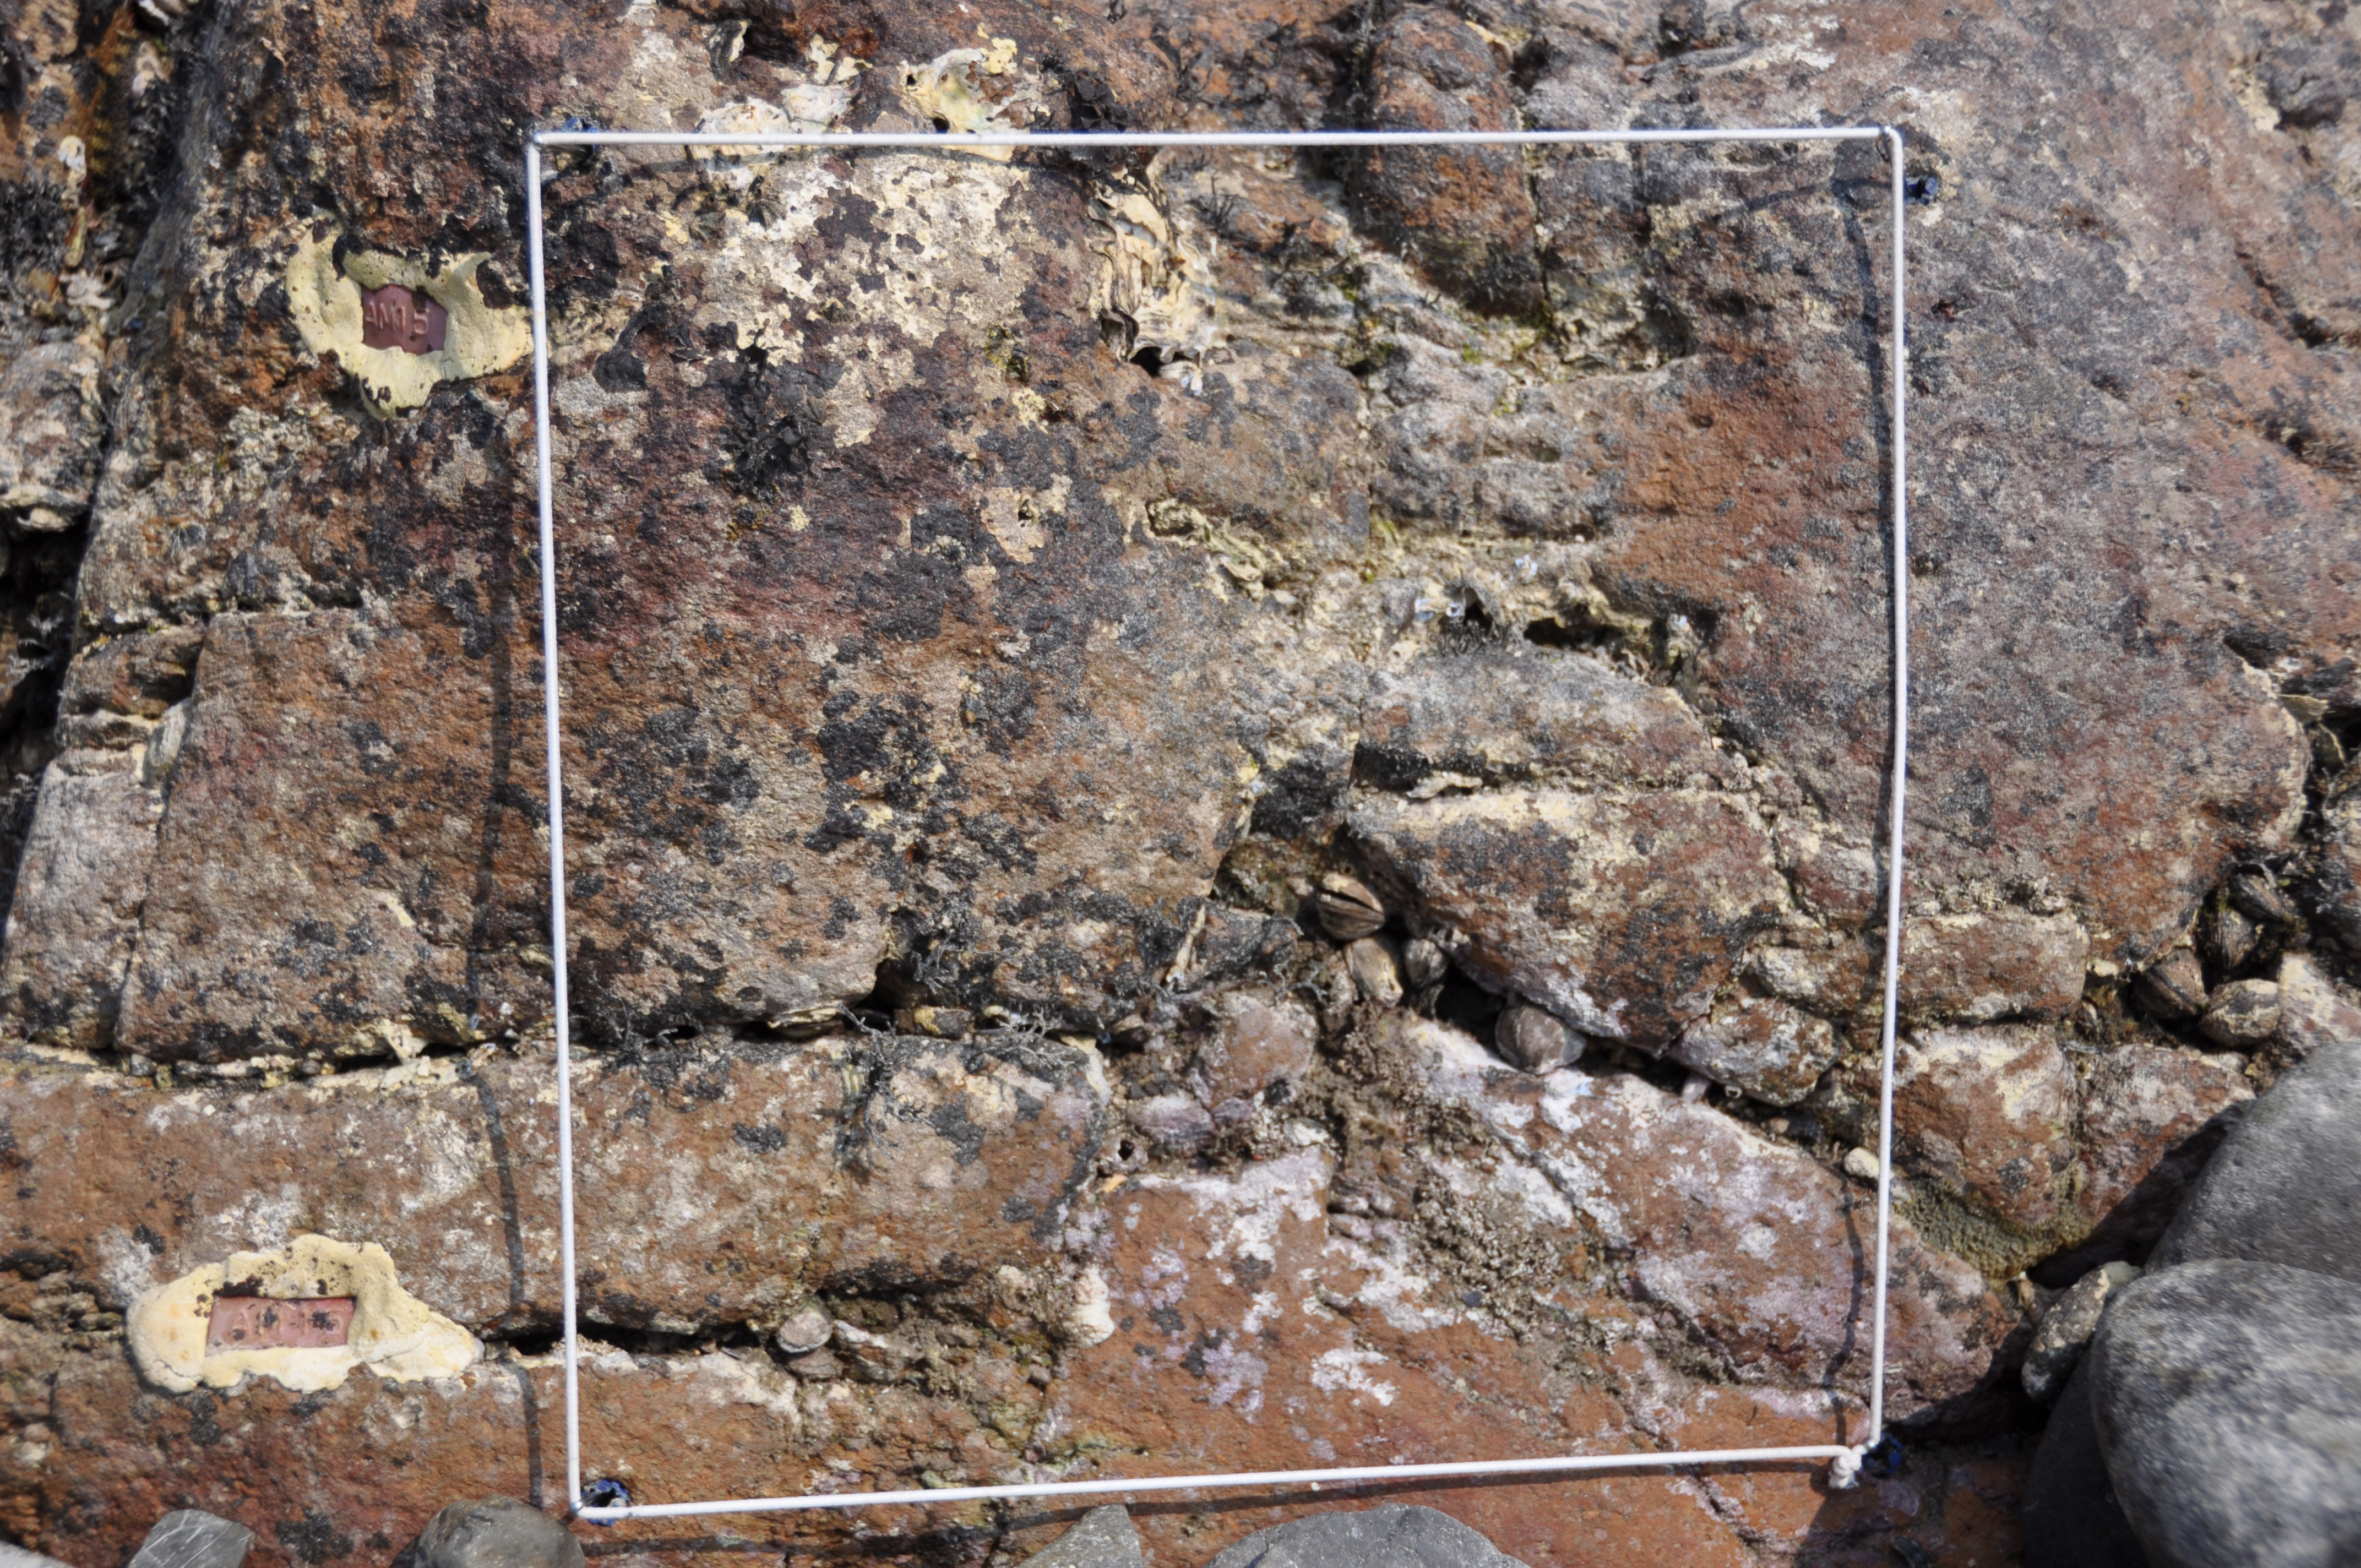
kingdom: Chromista
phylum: Ochrophyta
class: Phaeophyceae
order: Ishigeales
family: Ishigeaceae
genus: Ishige
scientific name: Ishige okamurae
